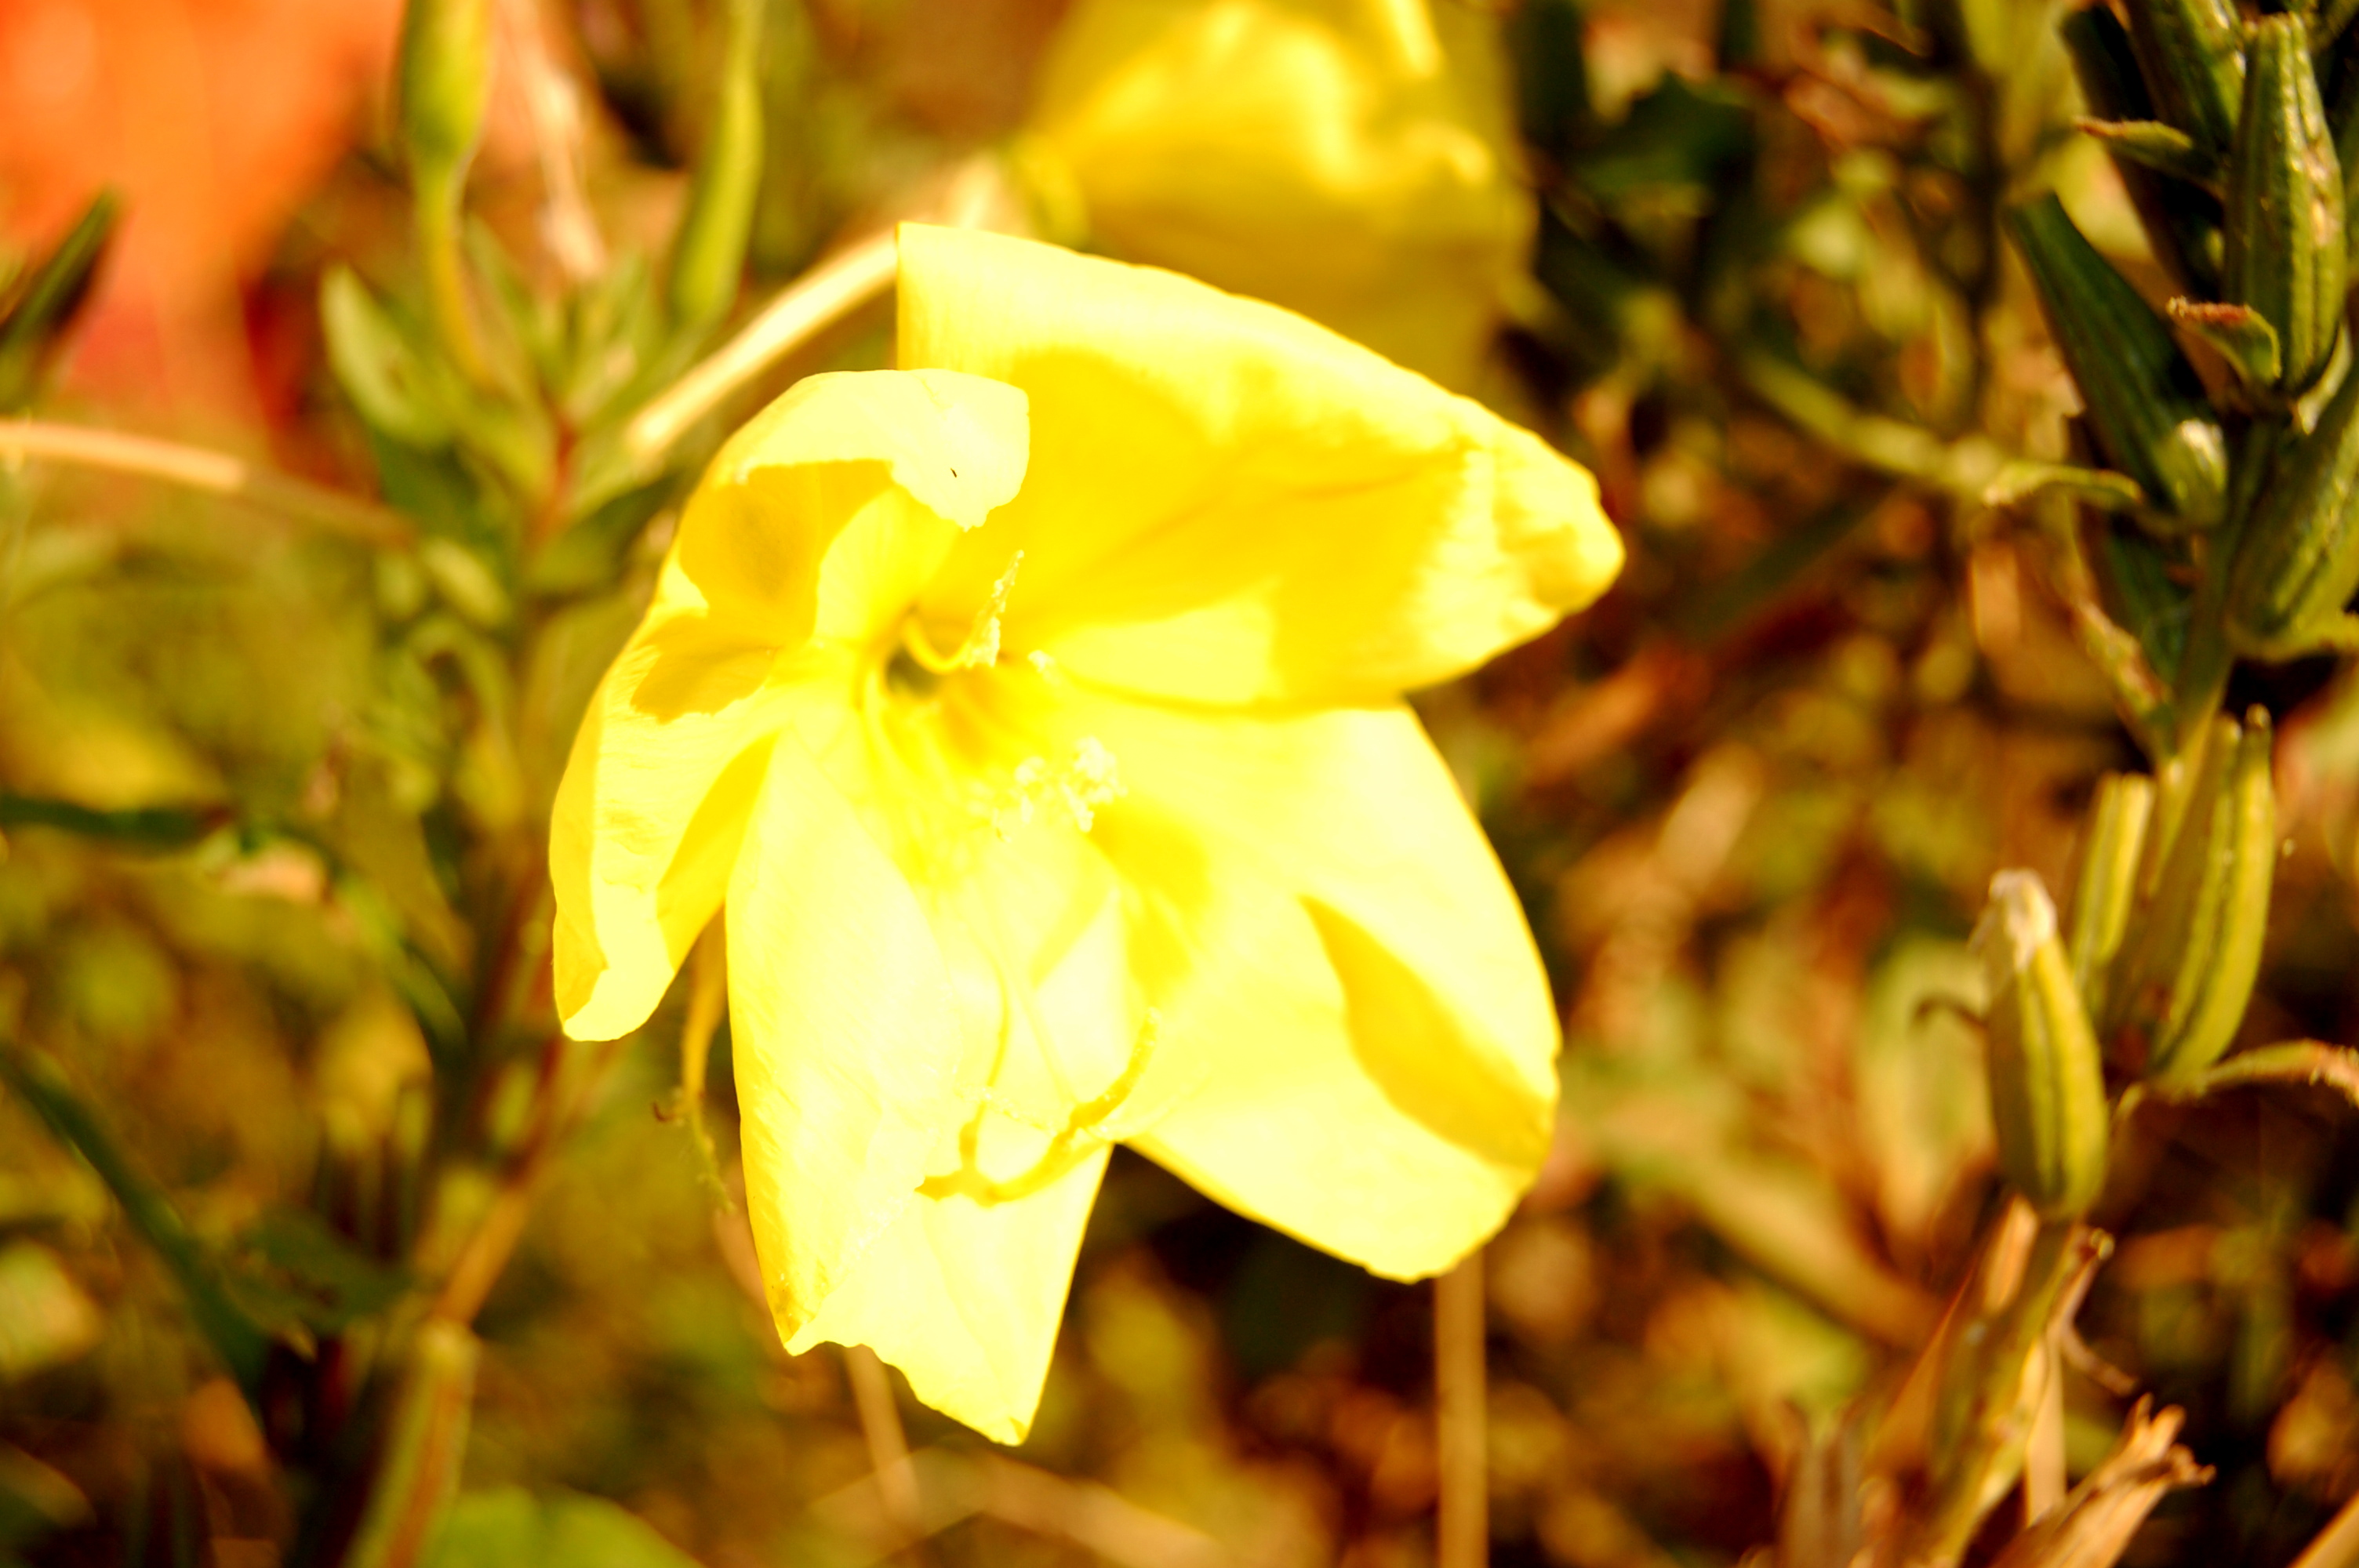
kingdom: Plantae
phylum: Tracheophyta
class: Magnoliopsida
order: Myrtales
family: Onagraceae
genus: Oenothera
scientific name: Oenothera glazioviana
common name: Large-flowered evening-primrose
